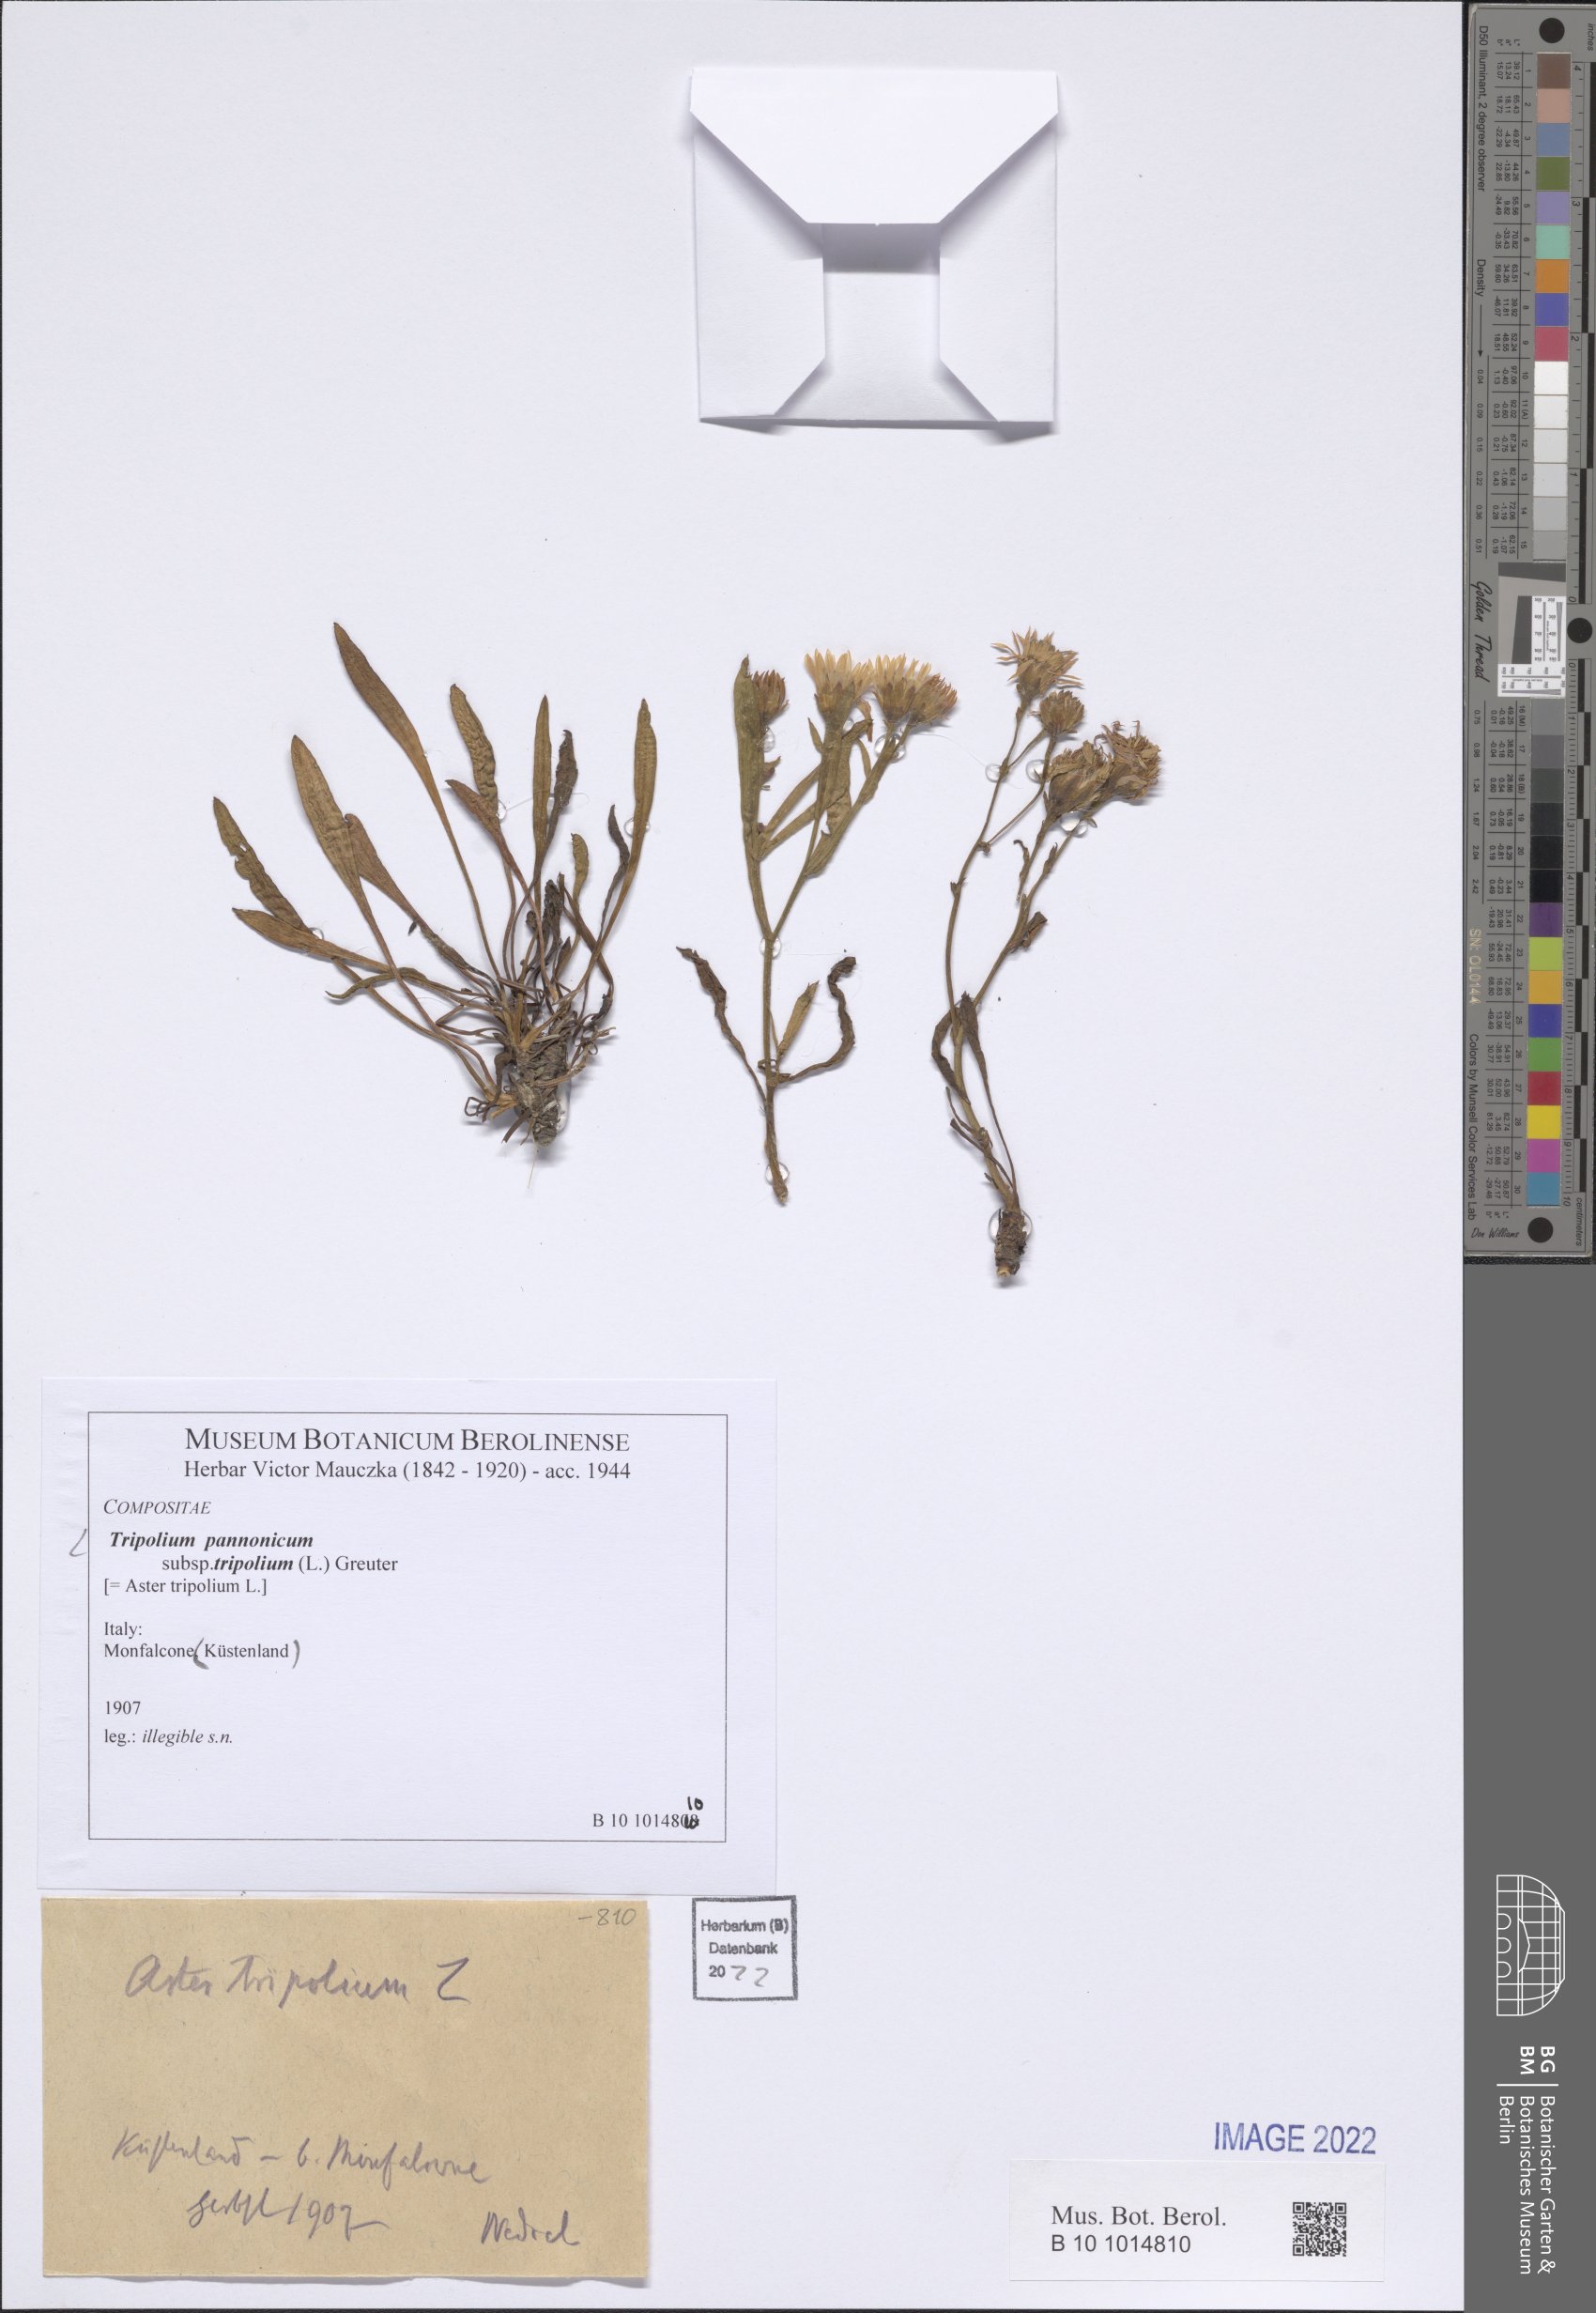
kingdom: Plantae
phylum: Tracheophyta
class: Magnoliopsida
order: Asterales
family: Asteraceae
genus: Tripolium
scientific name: Tripolium pannonicum
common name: Sea aster
